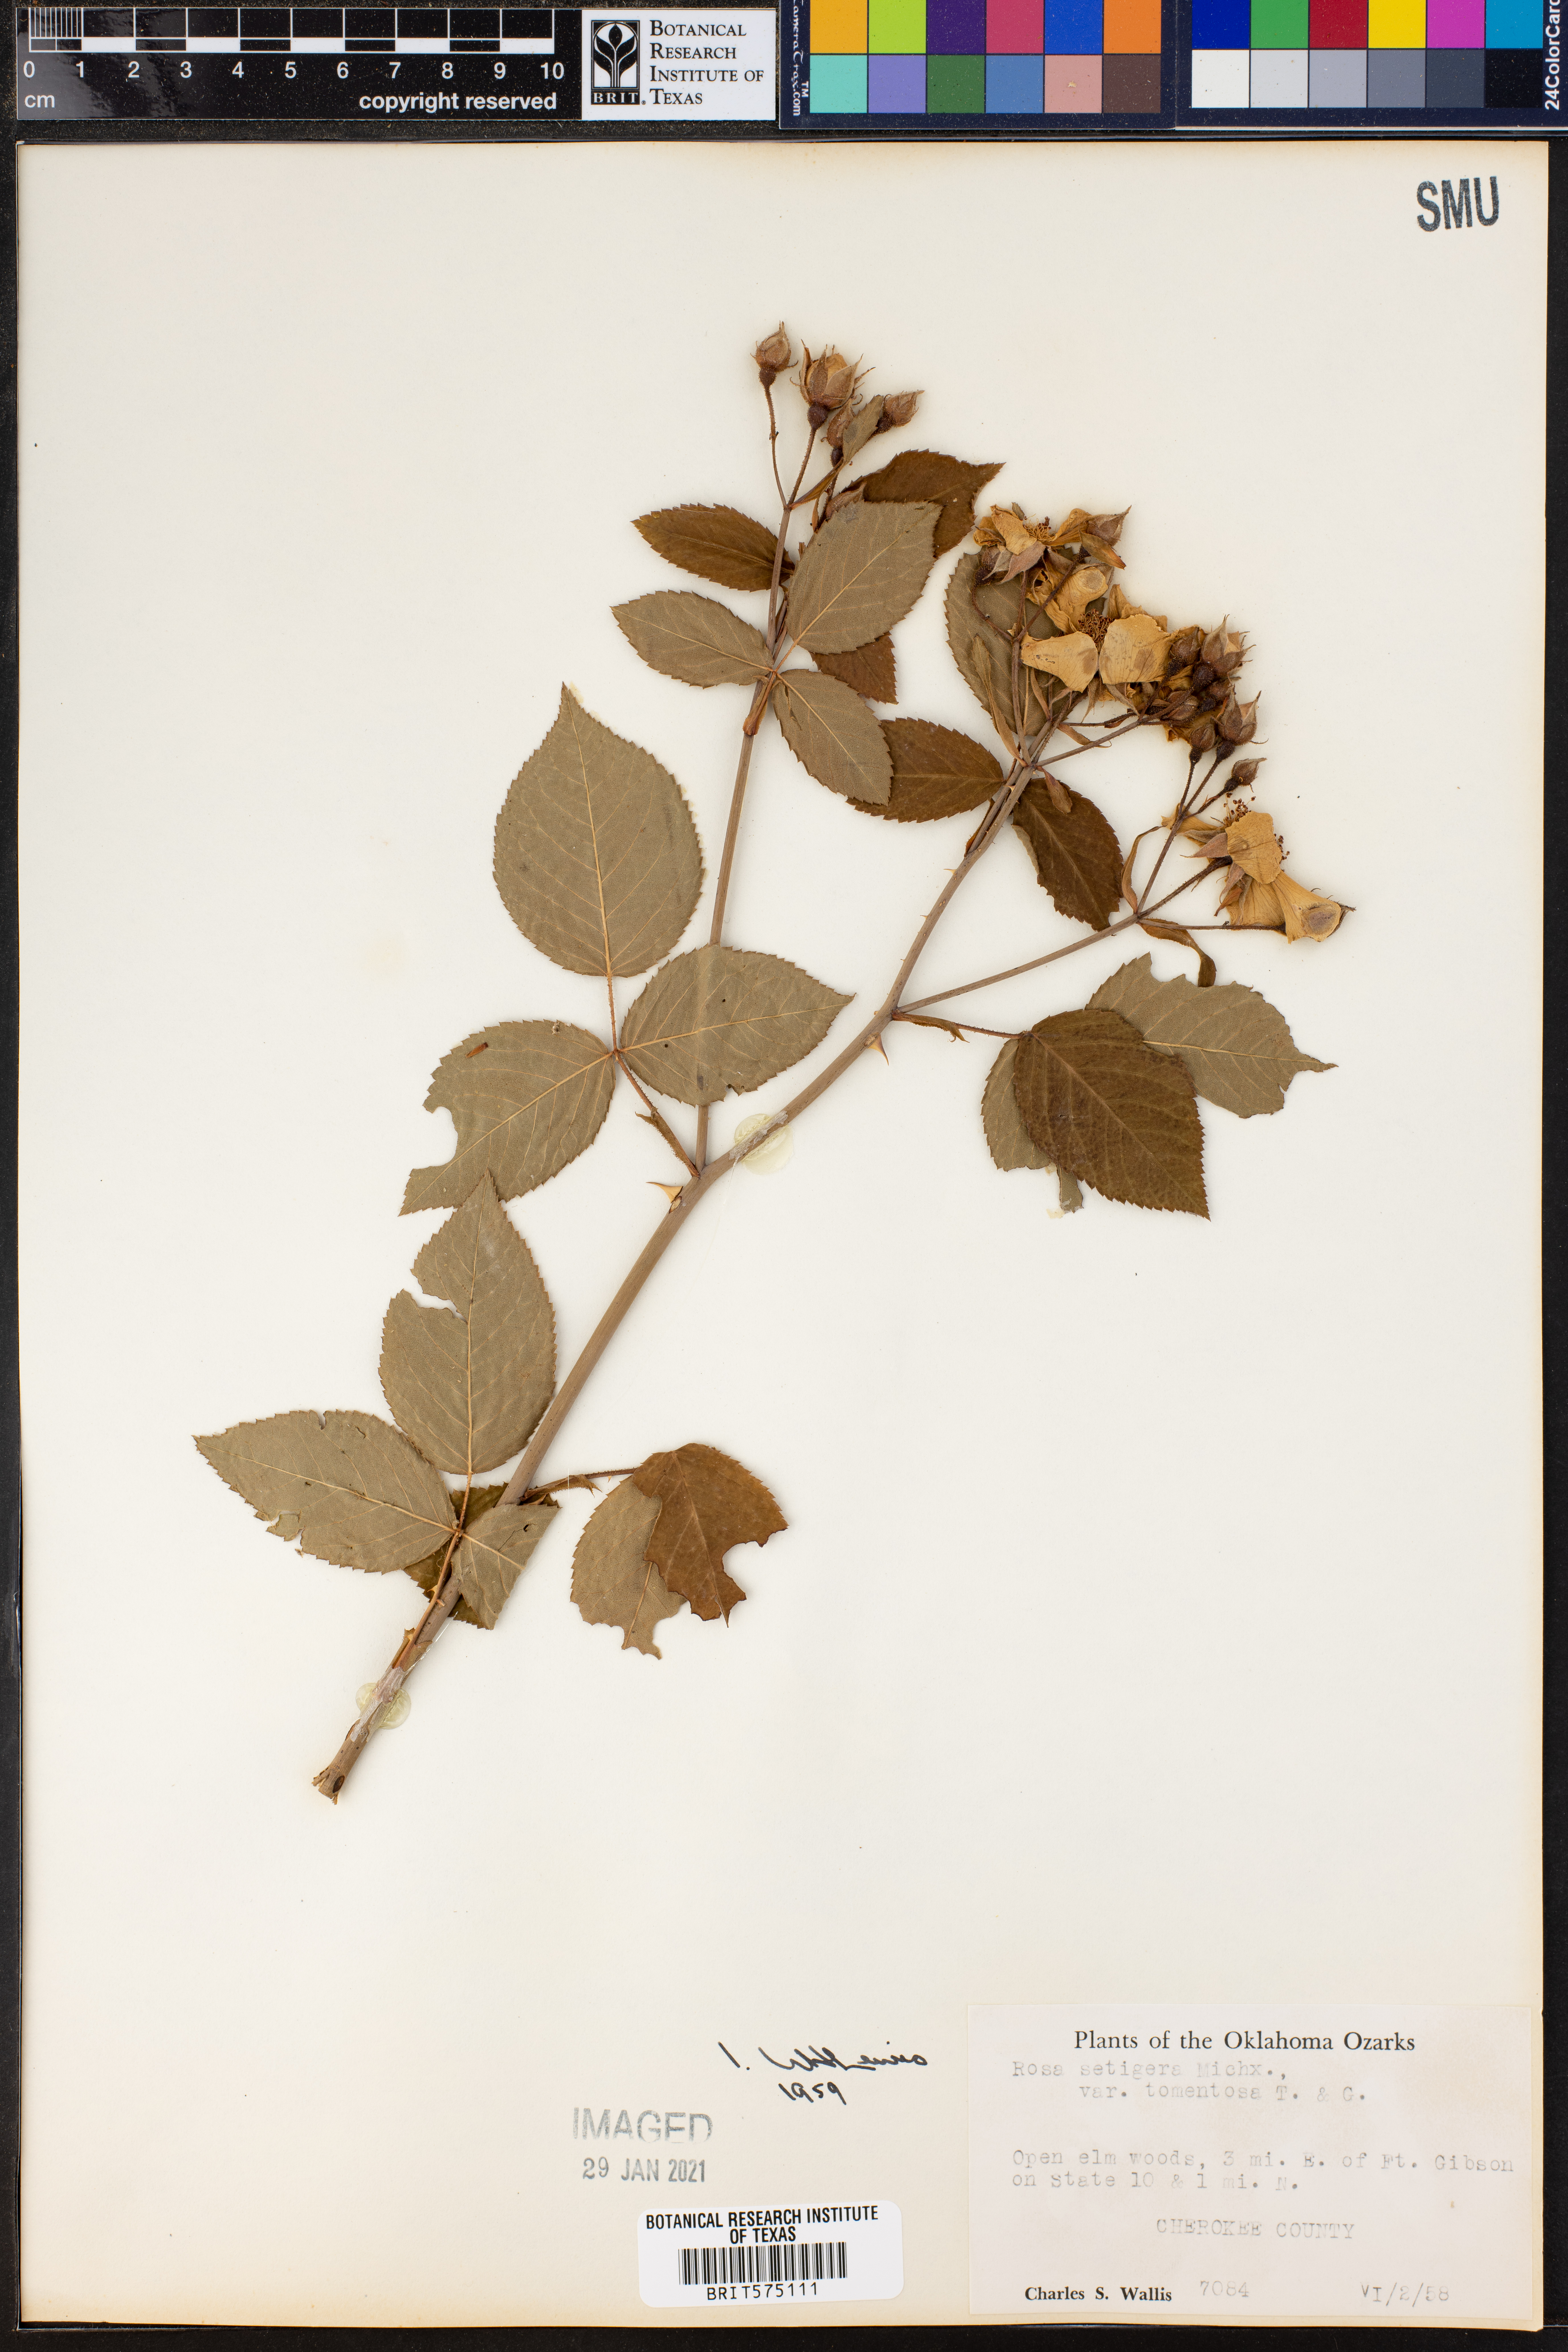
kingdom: Plantae
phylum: Tracheophyta
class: Magnoliopsida
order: Rosales
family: Rosaceae
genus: Rosa
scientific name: Rosa setigera
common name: Prairie rose
